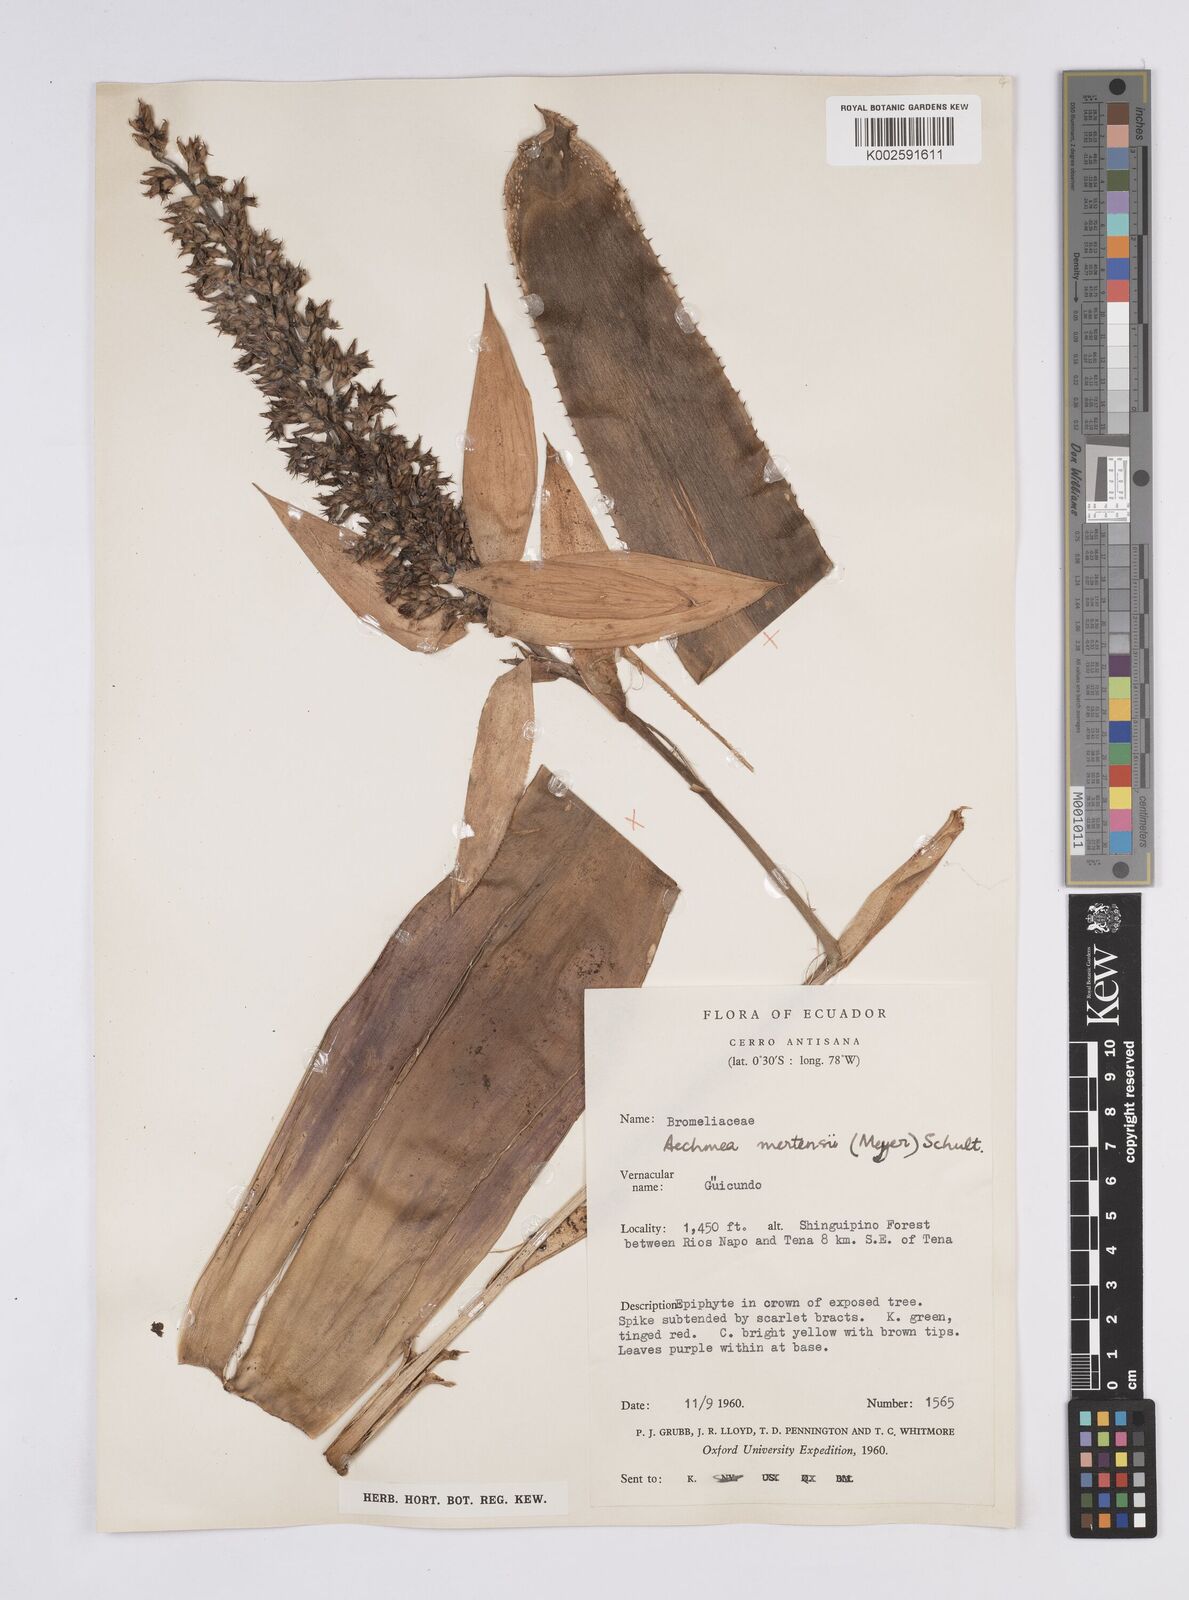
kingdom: Plantae
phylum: Tracheophyta
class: Liliopsida
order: Poales
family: Bromeliaceae
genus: Aechmea
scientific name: Aechmea mertensii
